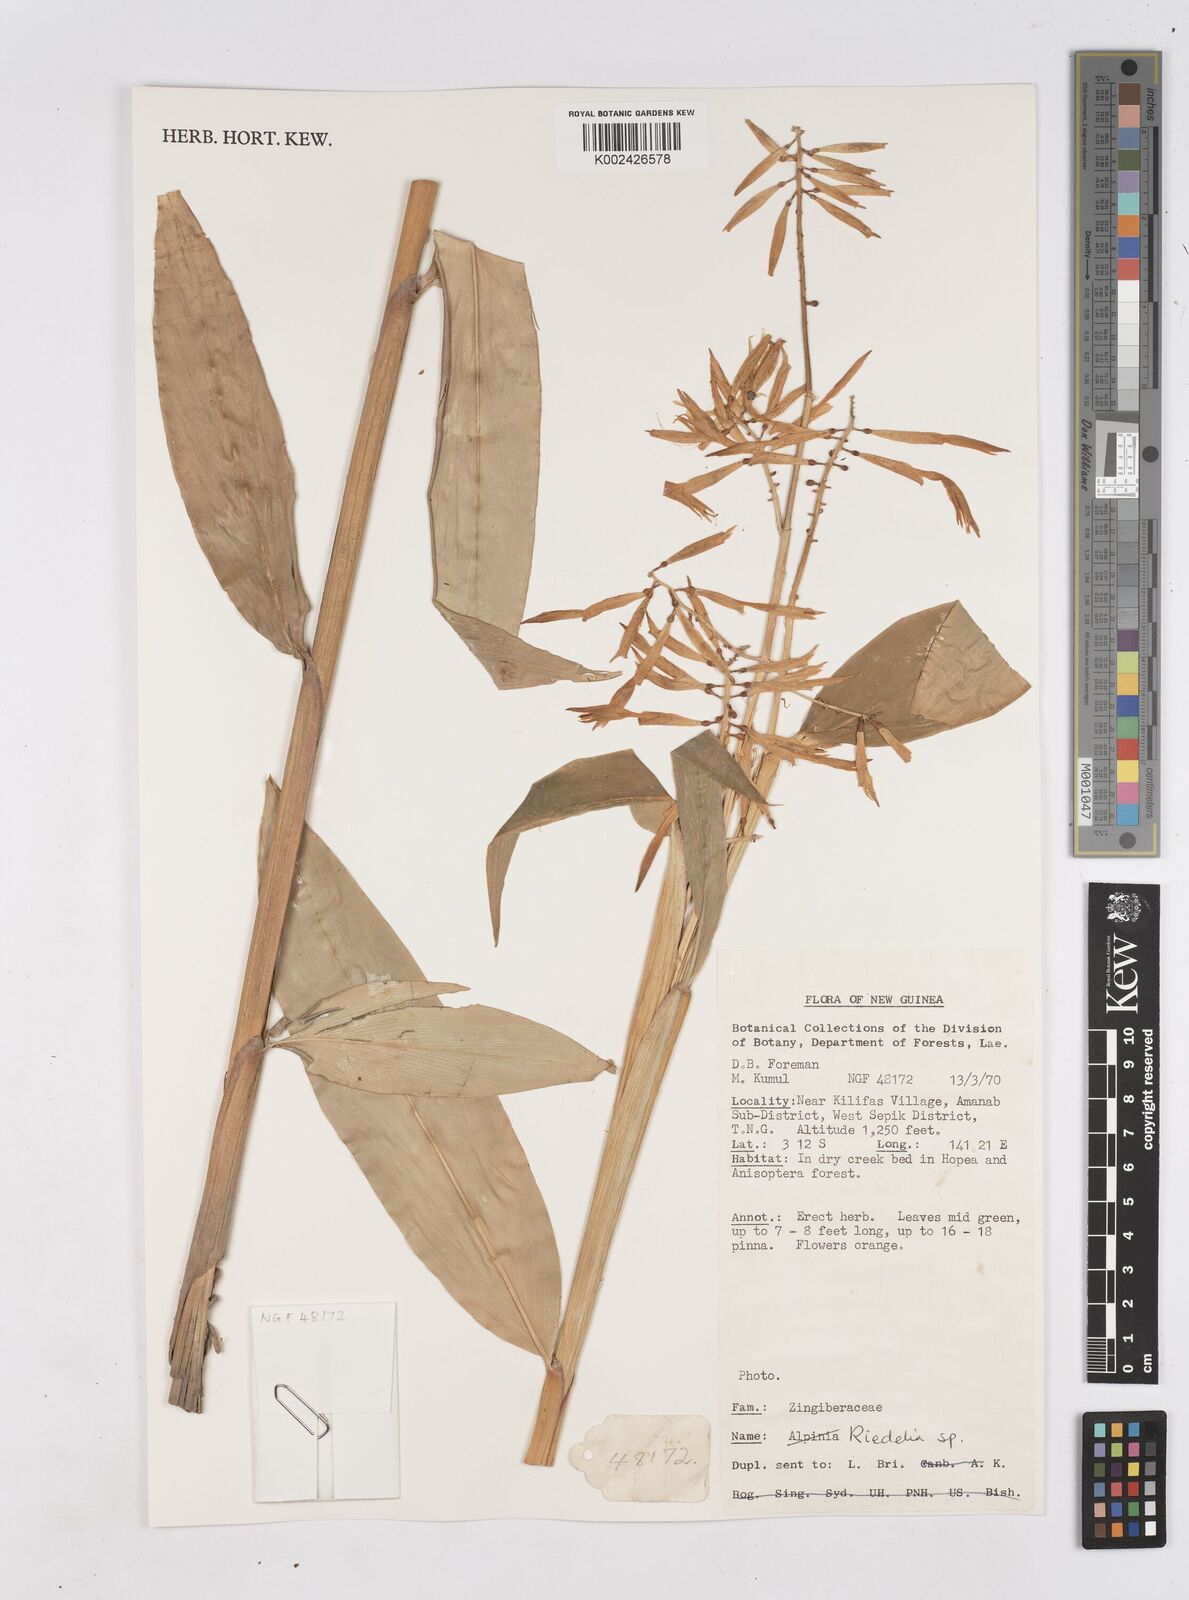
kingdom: Plantae
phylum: Tracheophyta
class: Liliopsida
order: Zingiberales
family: Zingiberaceae
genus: Riedelia
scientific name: Riedelia
